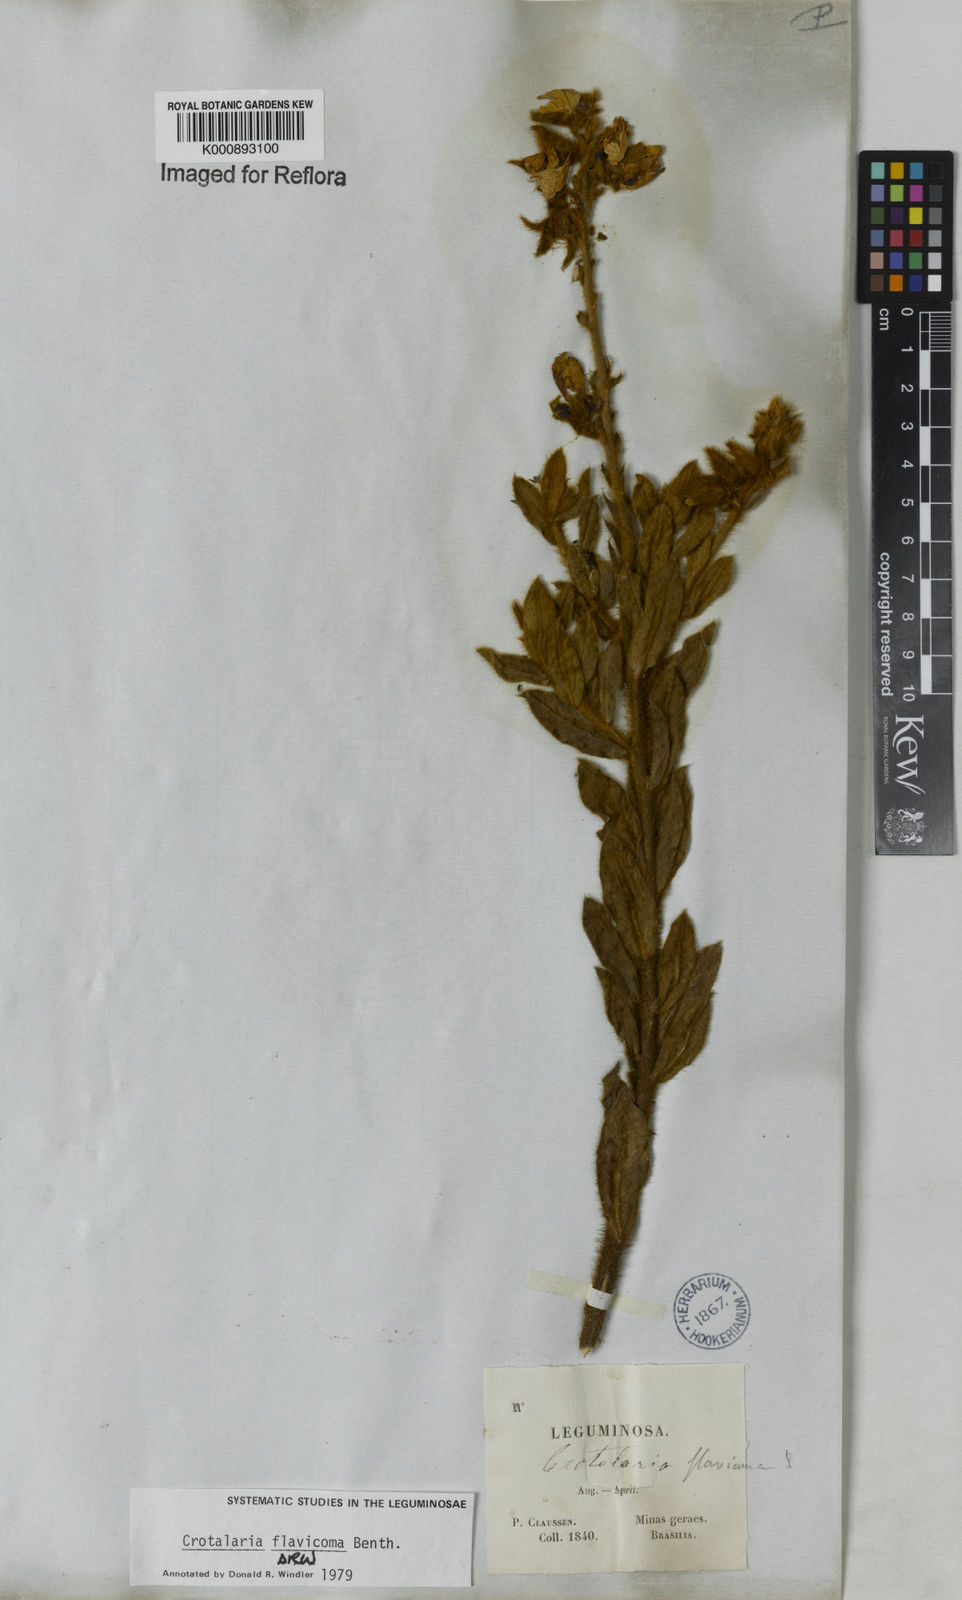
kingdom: Plantae
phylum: Tracheophyta
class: Magnoliopsida
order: Fabales
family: Fabaceae
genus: Crotalaria
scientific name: Crotalaria flavicoma
